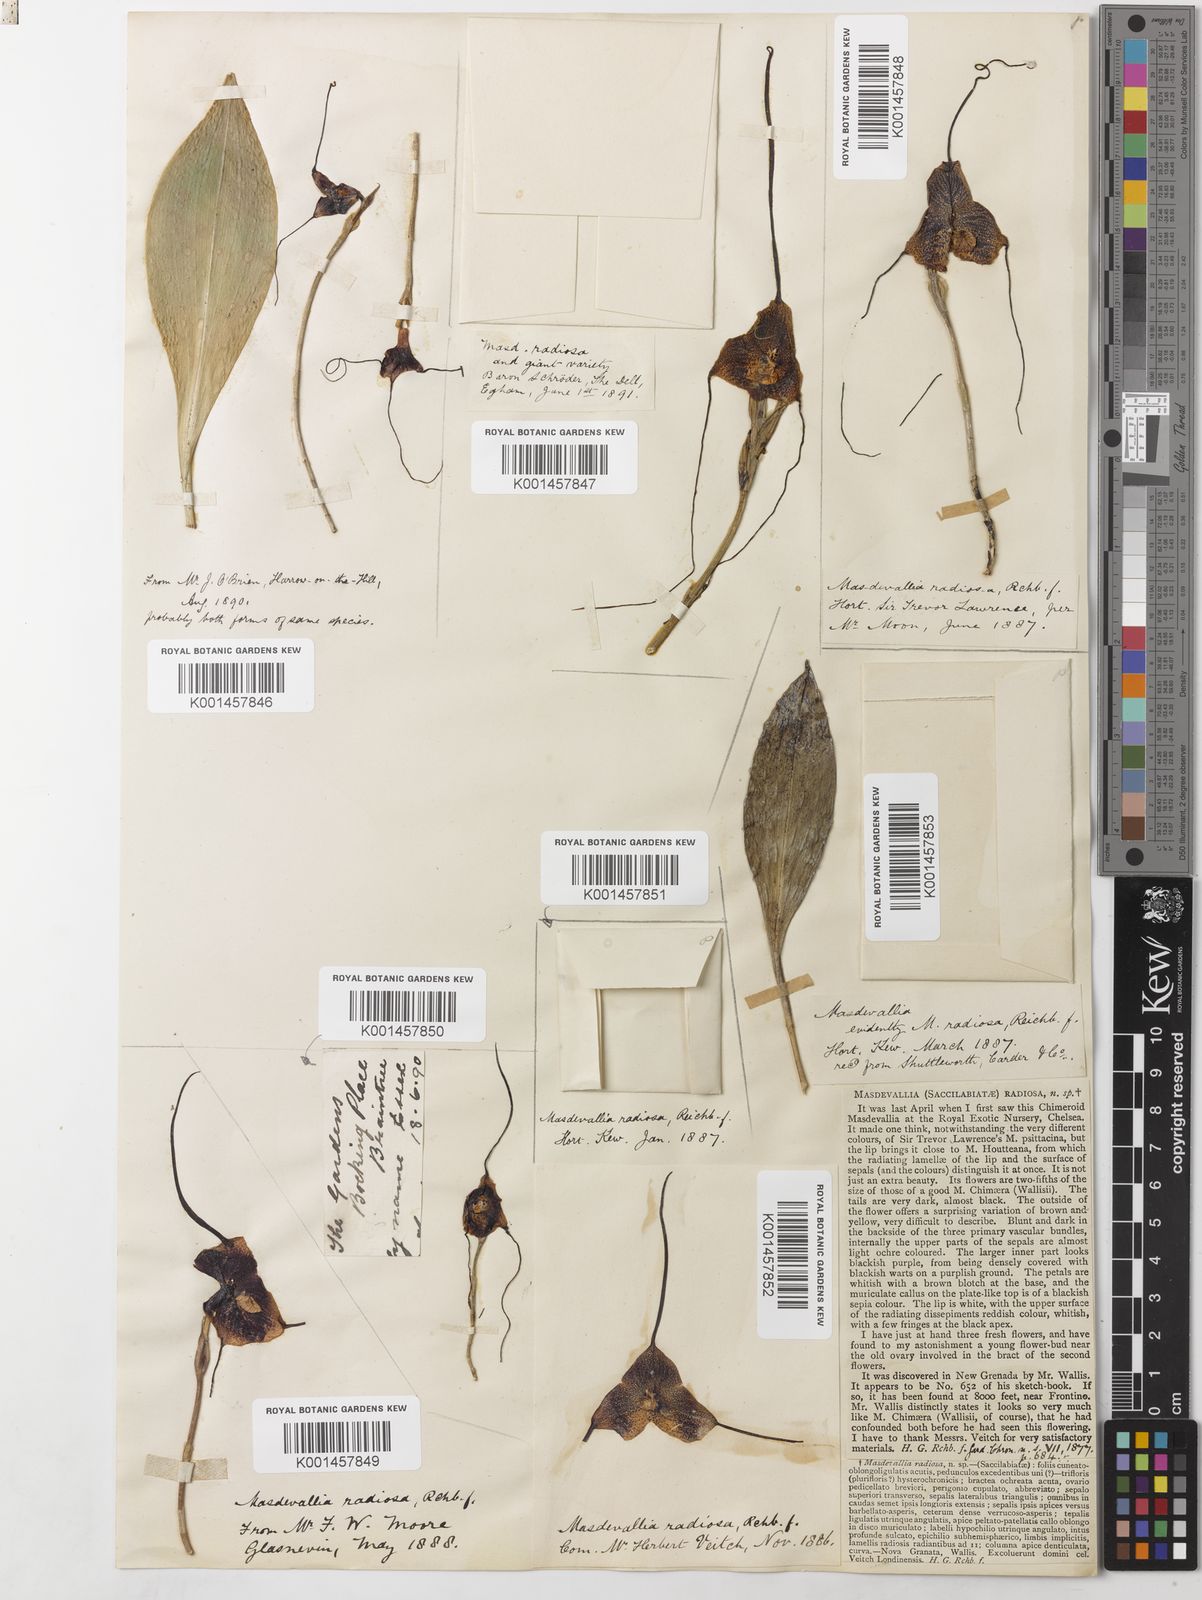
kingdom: Plantae
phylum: Tracheophyta
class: Liliopsida
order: Asparagales
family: Orchidaceae
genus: Dracula
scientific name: Dracula radiosa
